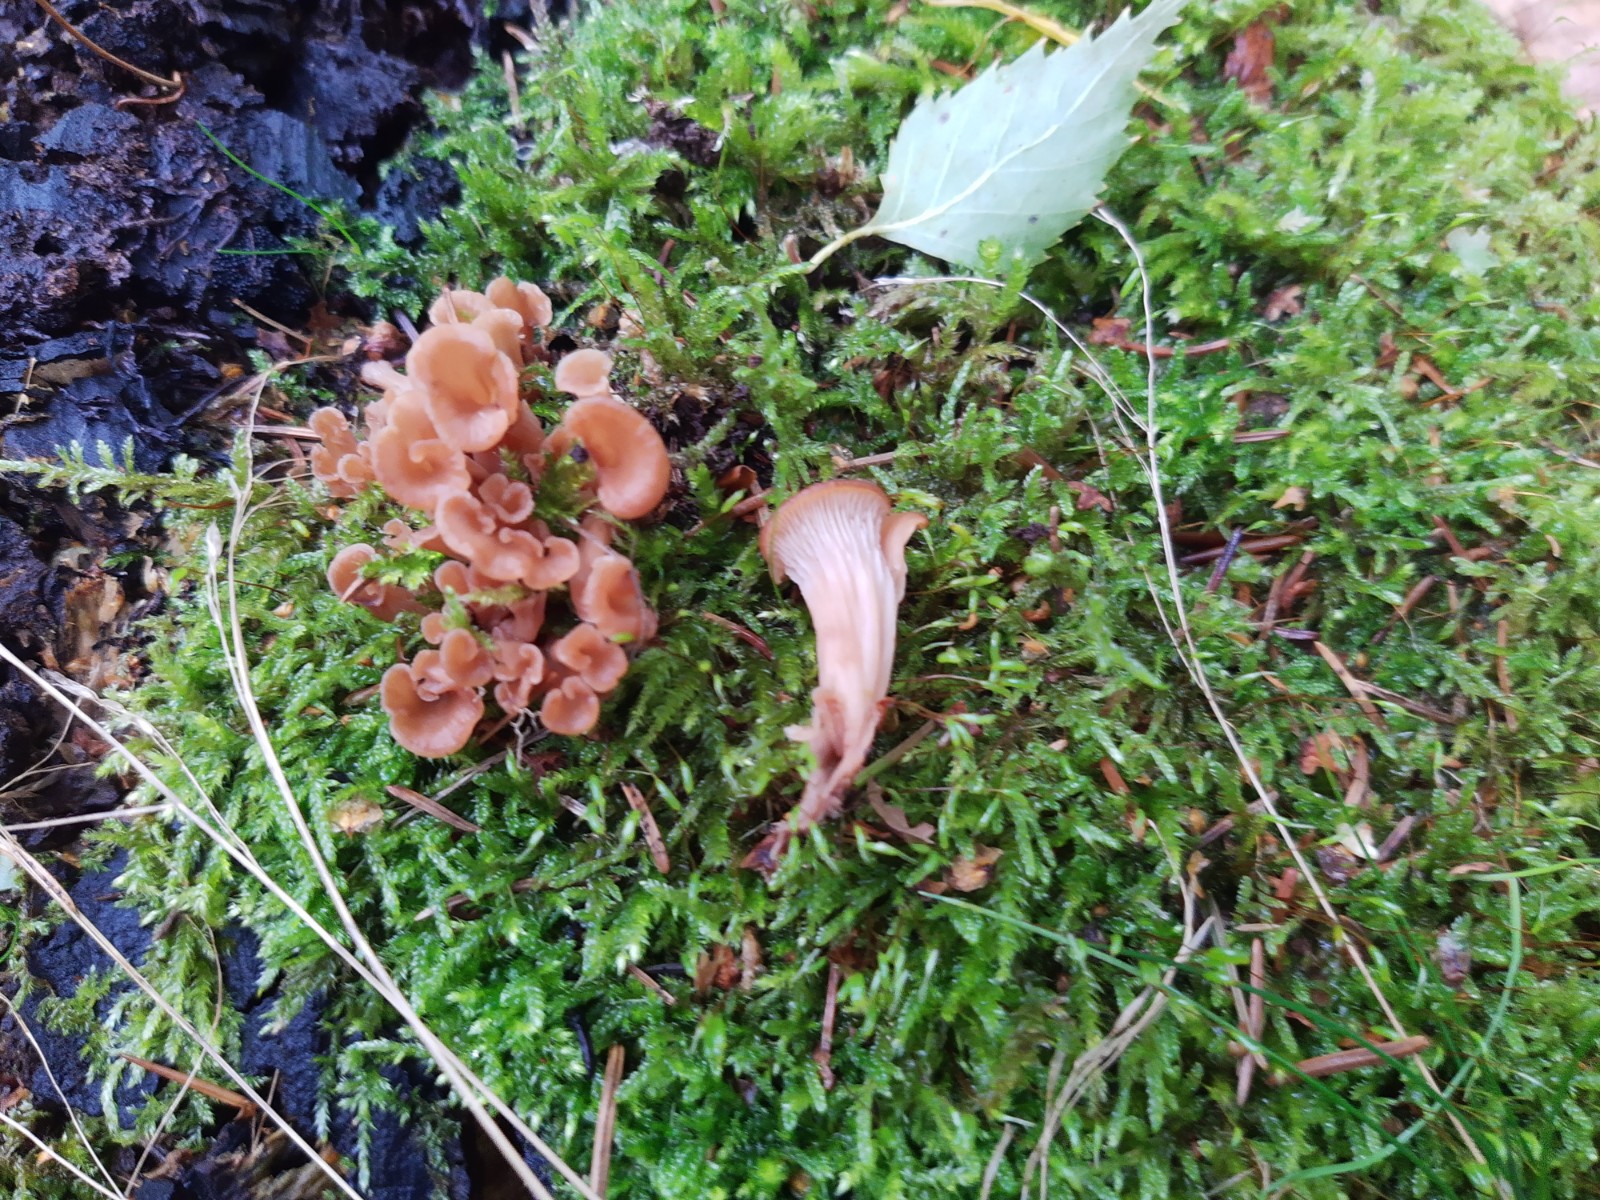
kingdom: Fungi
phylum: Basidiomycota
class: Agaricomycetes
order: Russulales
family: Auriscalpiaceae
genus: Lentinellus
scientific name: Lentinellus cochleatus
